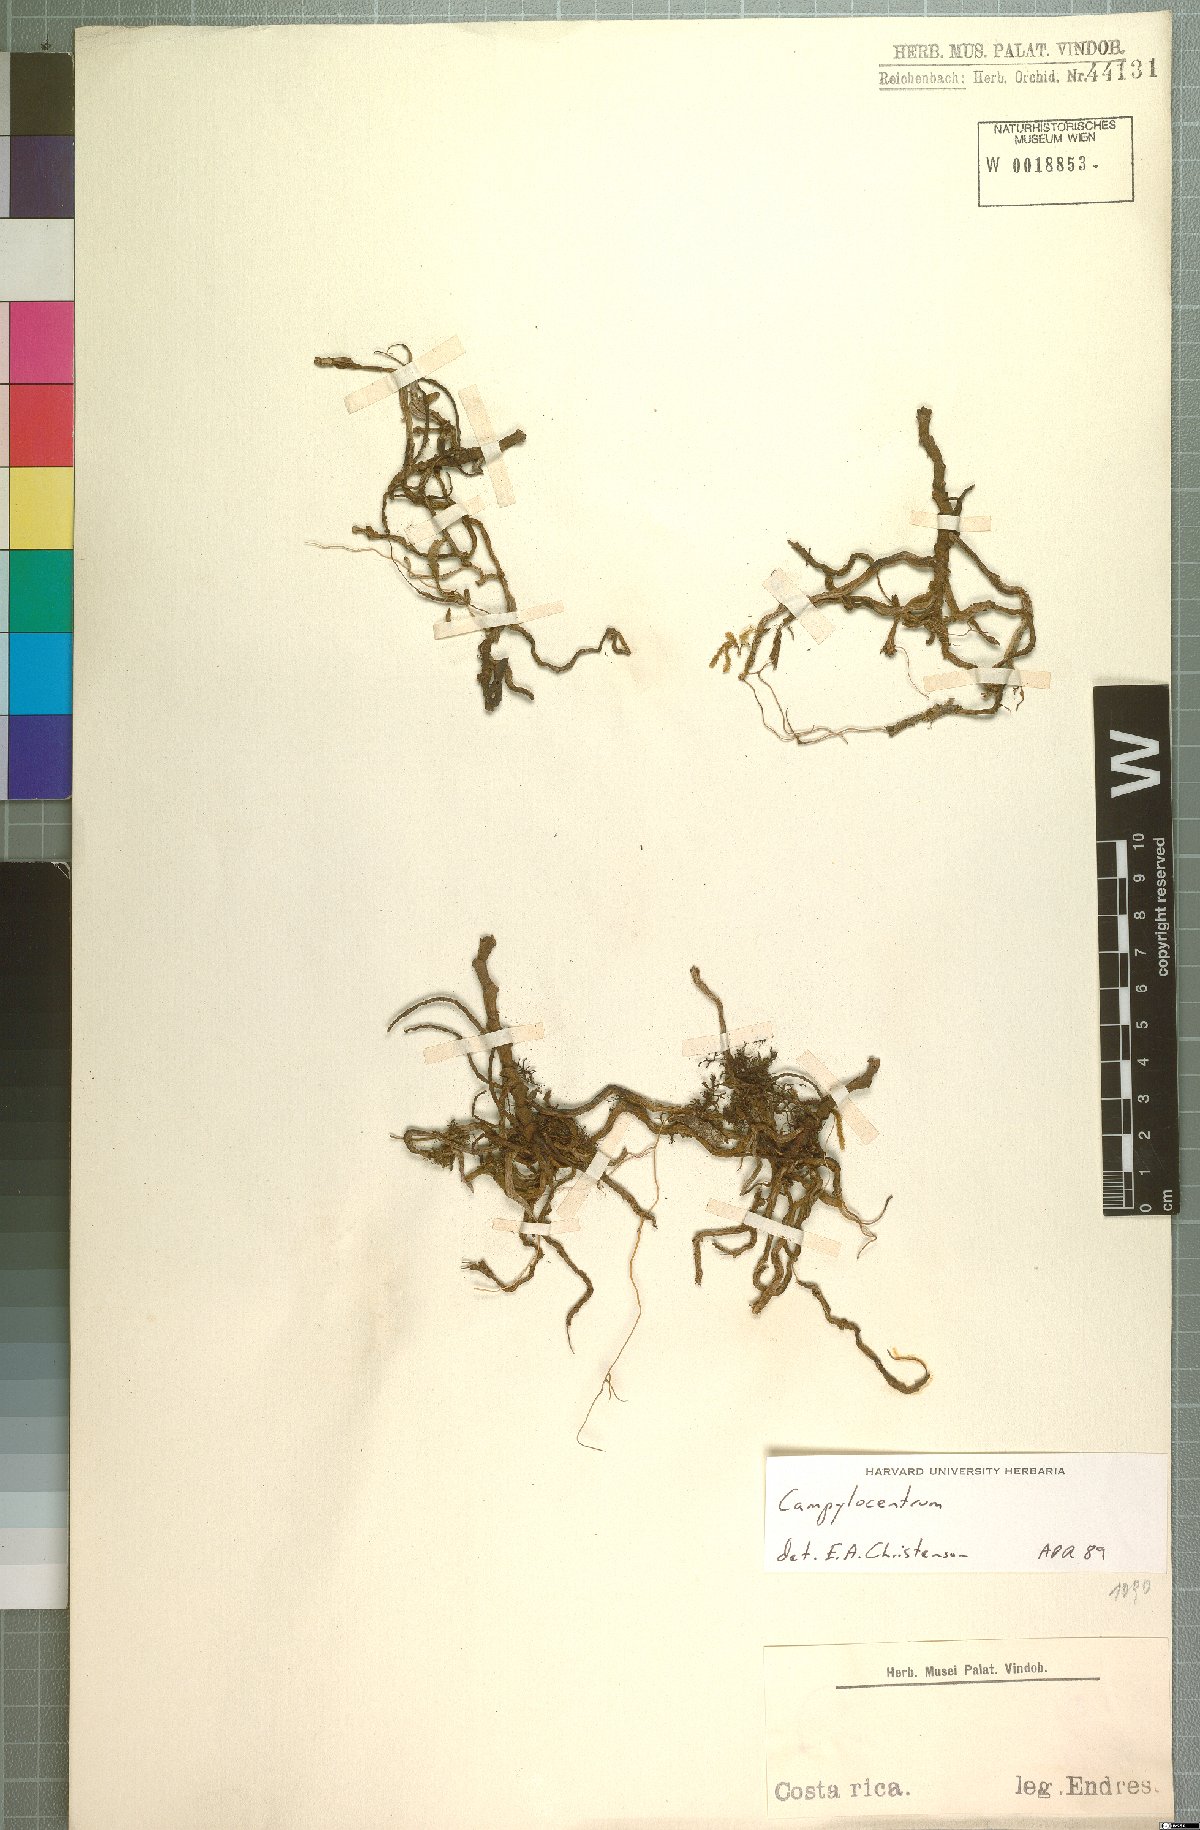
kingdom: Plantae
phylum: Tracheophyta
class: Liliopsida
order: Asparagales
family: Orchidaceae
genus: Campylocentrum
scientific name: Campylocentrum
